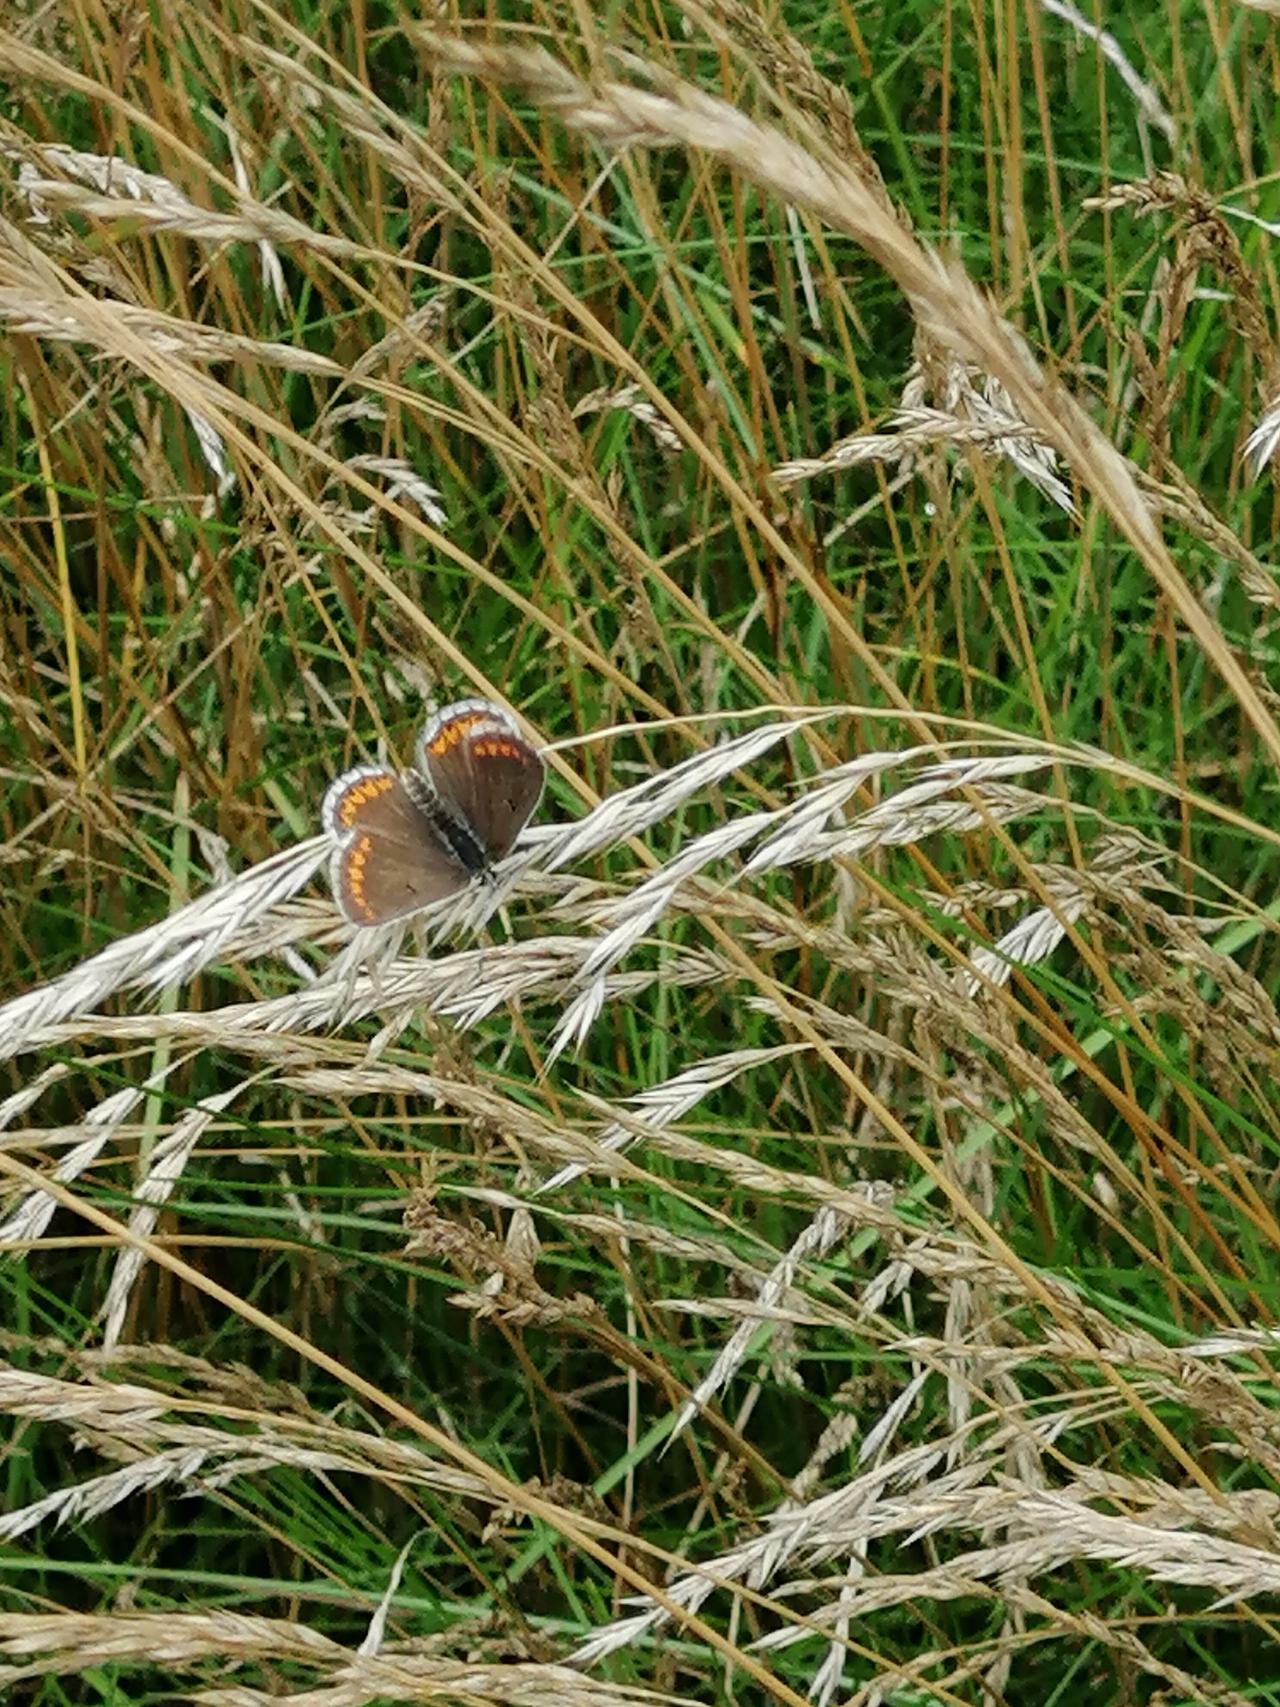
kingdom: Animalia
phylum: Arthropoda
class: Insecta
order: Lepidoptera
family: Lycaenidae
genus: Aricia
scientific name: Aricia agestis
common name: Rødplettet blåfugl
